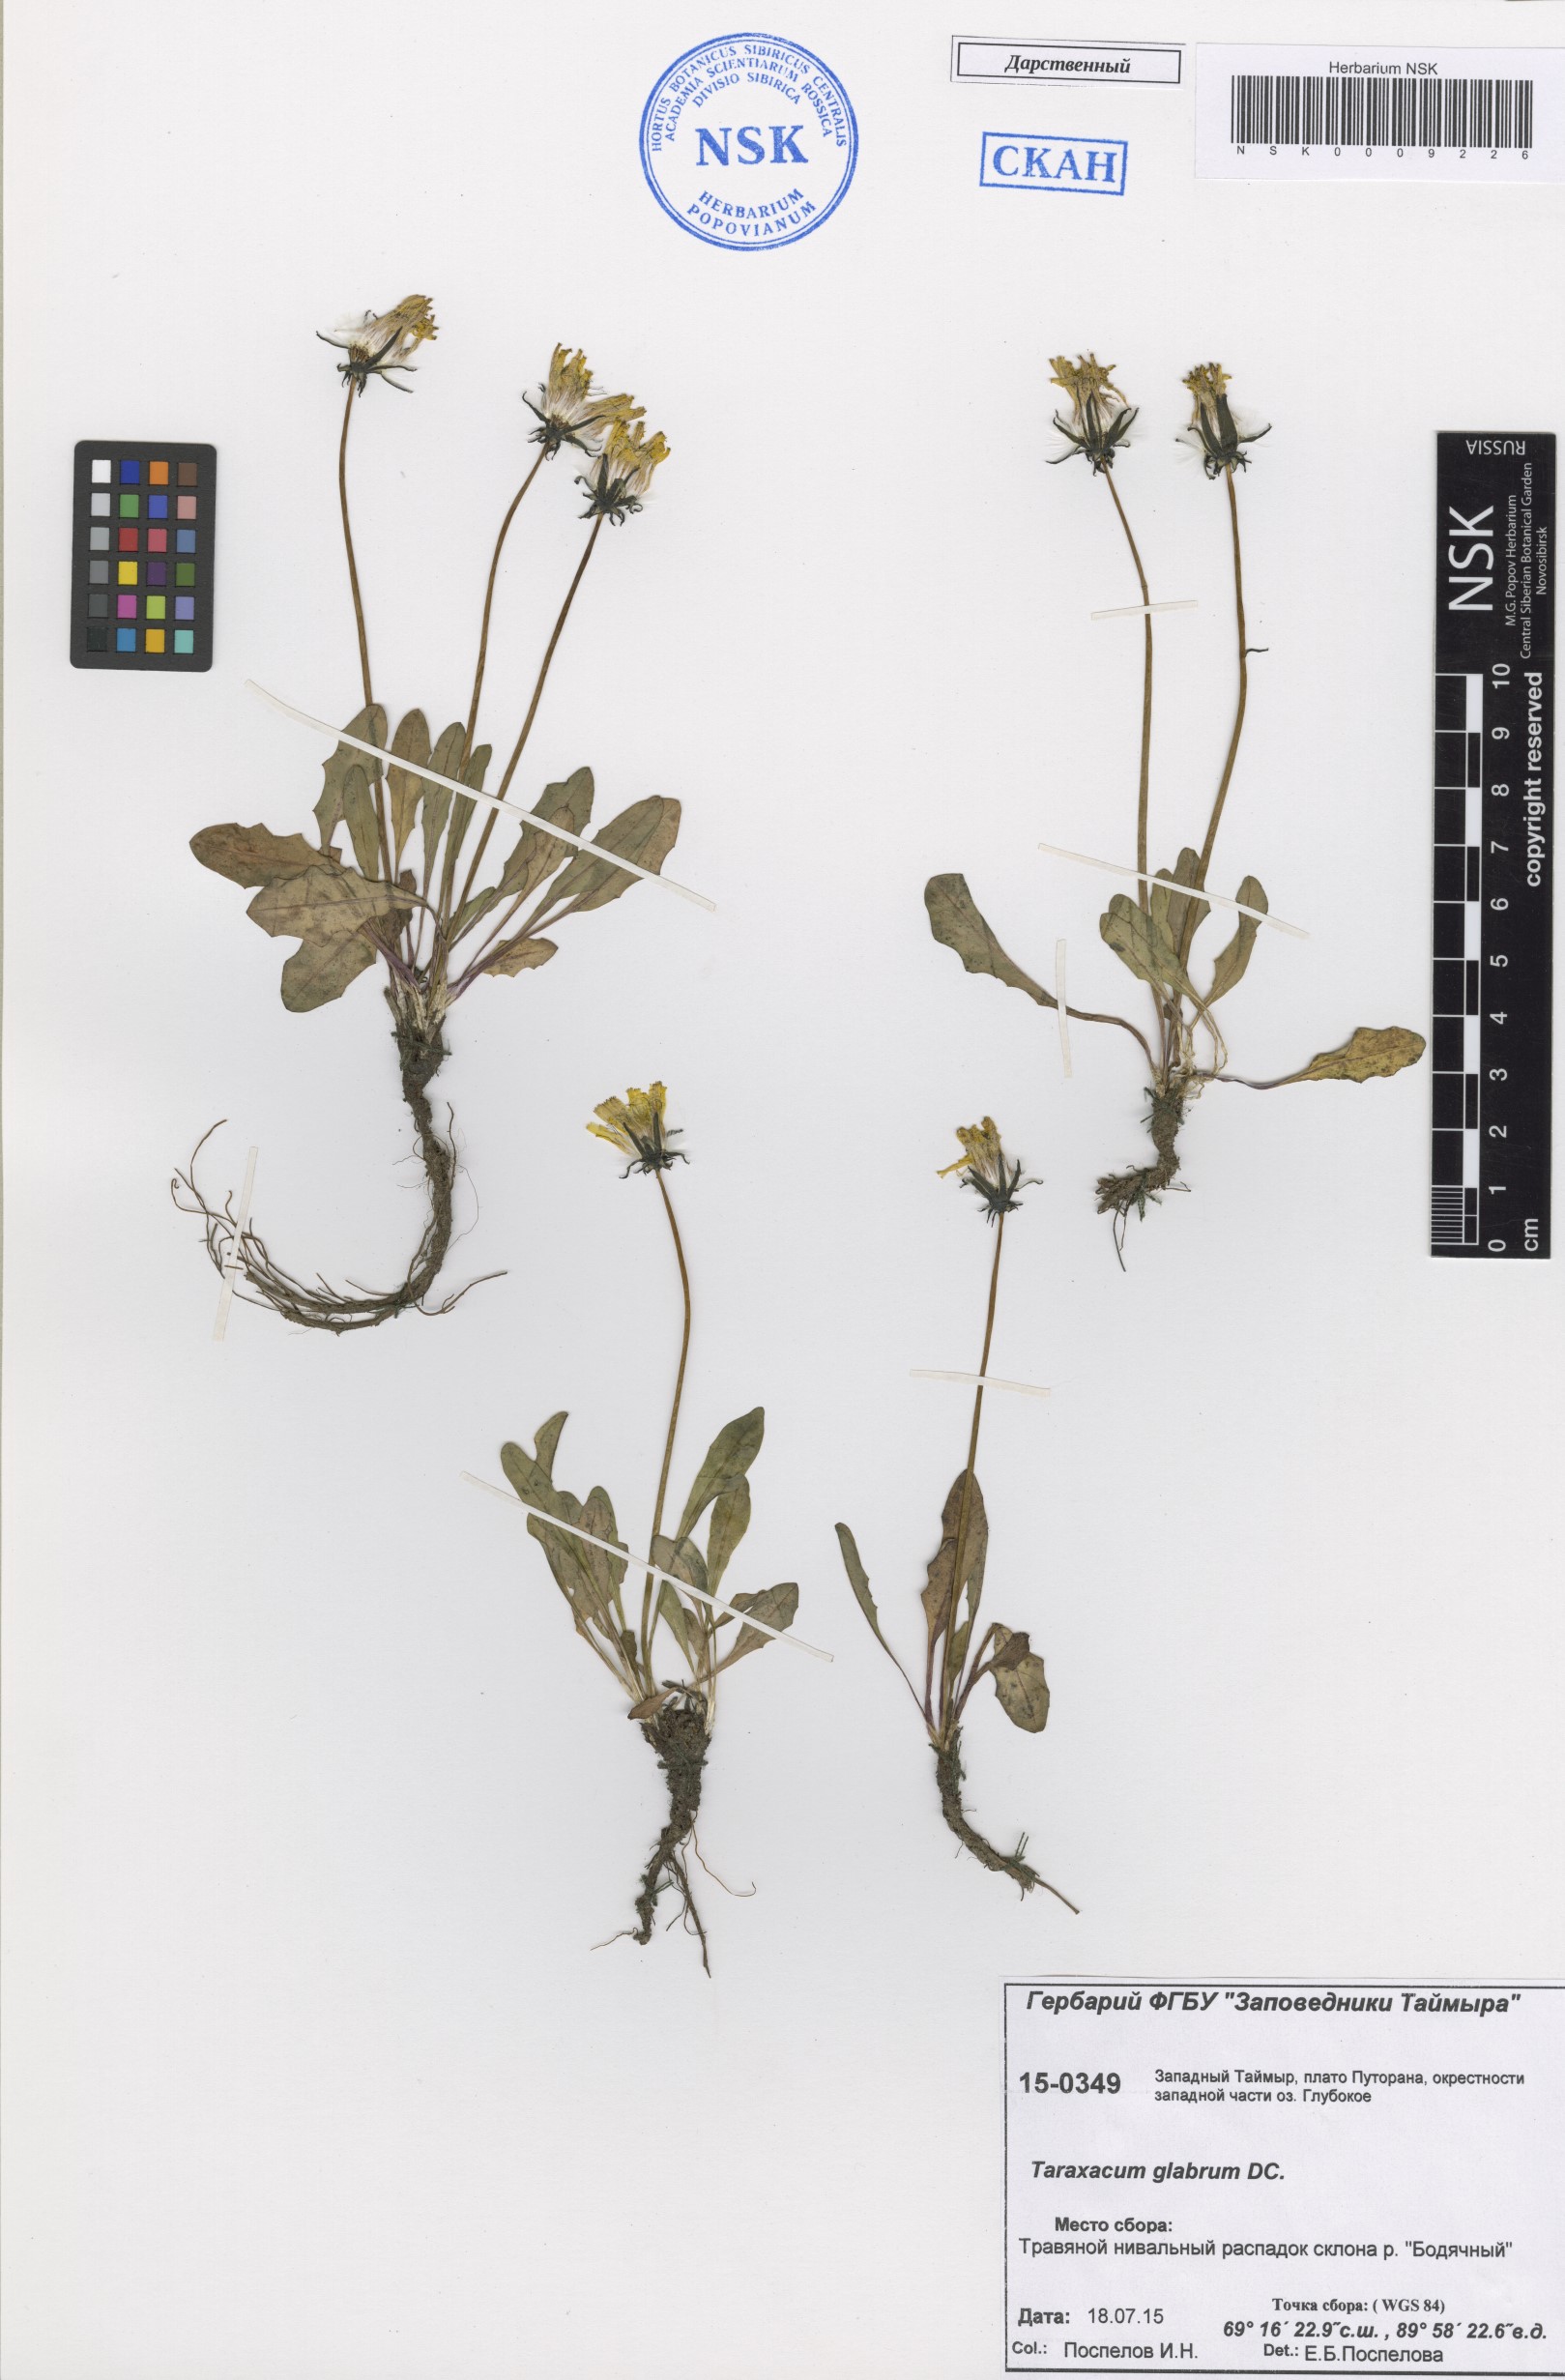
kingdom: Plantae
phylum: Tracheophyta
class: Magnoliopsida
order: Asterales
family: Asteraceae
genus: Taraxacum
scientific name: Taraxacum glabrum
